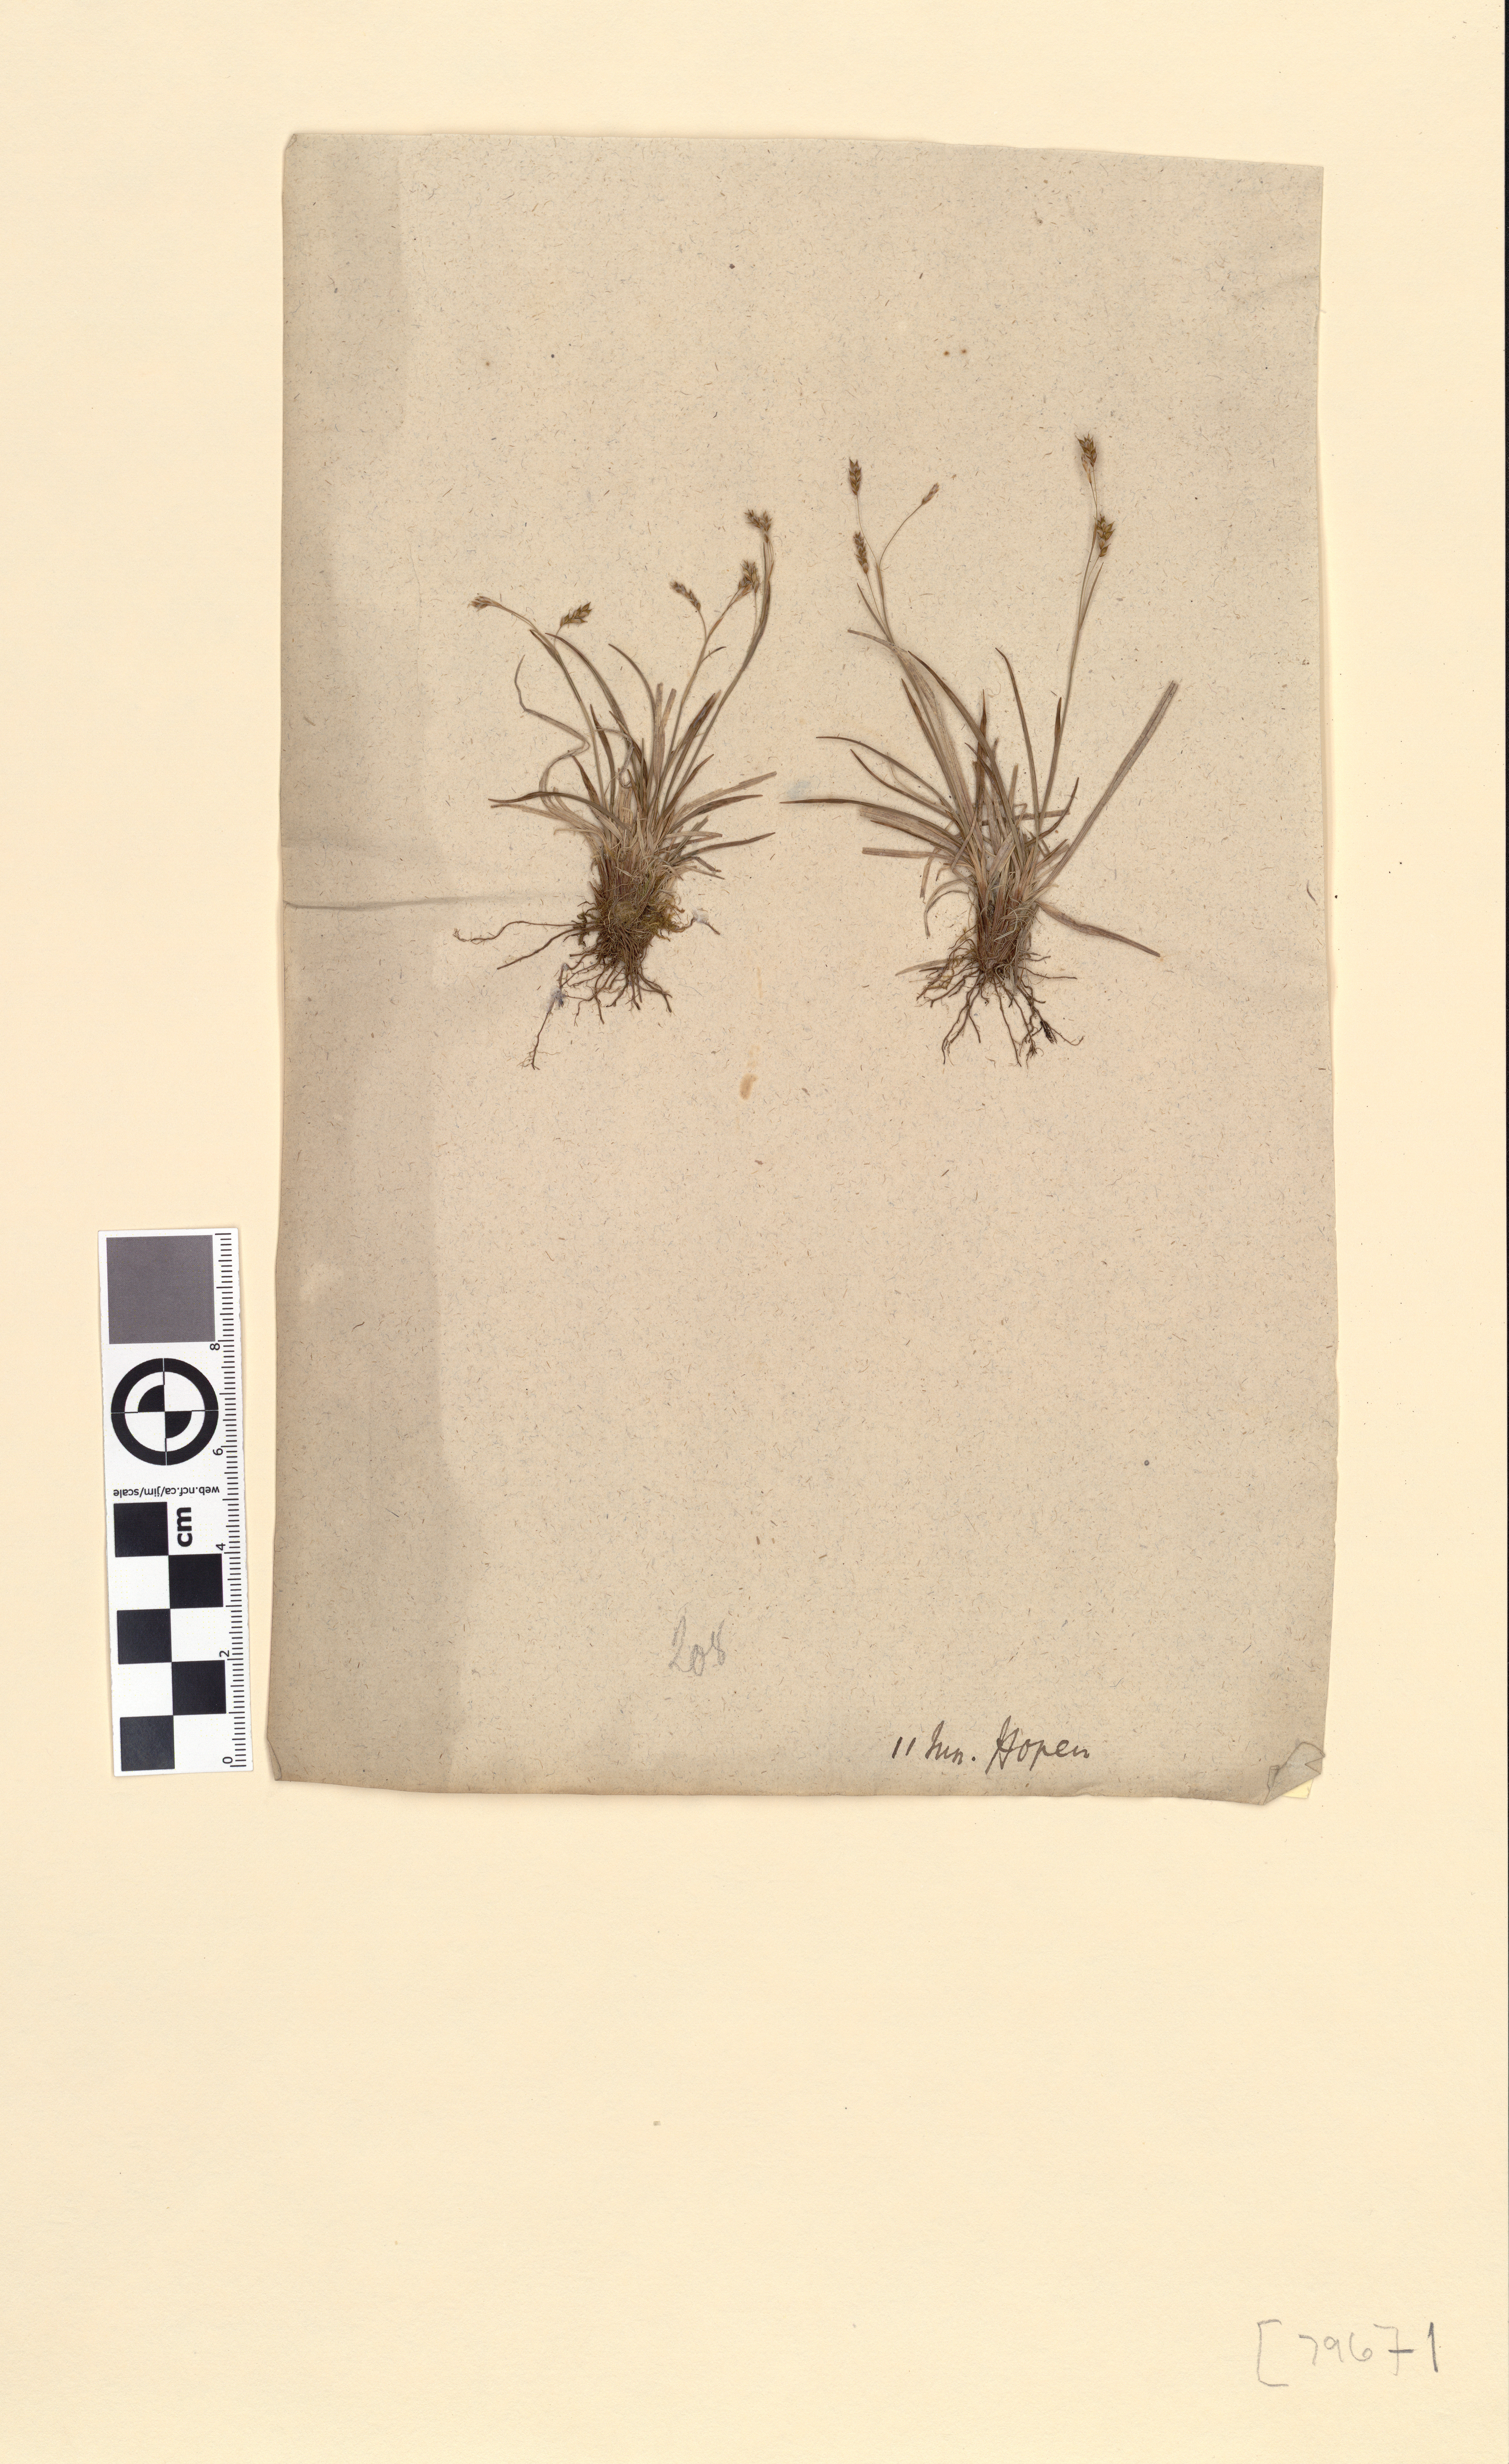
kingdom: Plantae
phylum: Tracheophyta
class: Liliopsida
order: Poales
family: Cyperaceae
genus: Carex
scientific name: Carex capillaris
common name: Hair sedge
